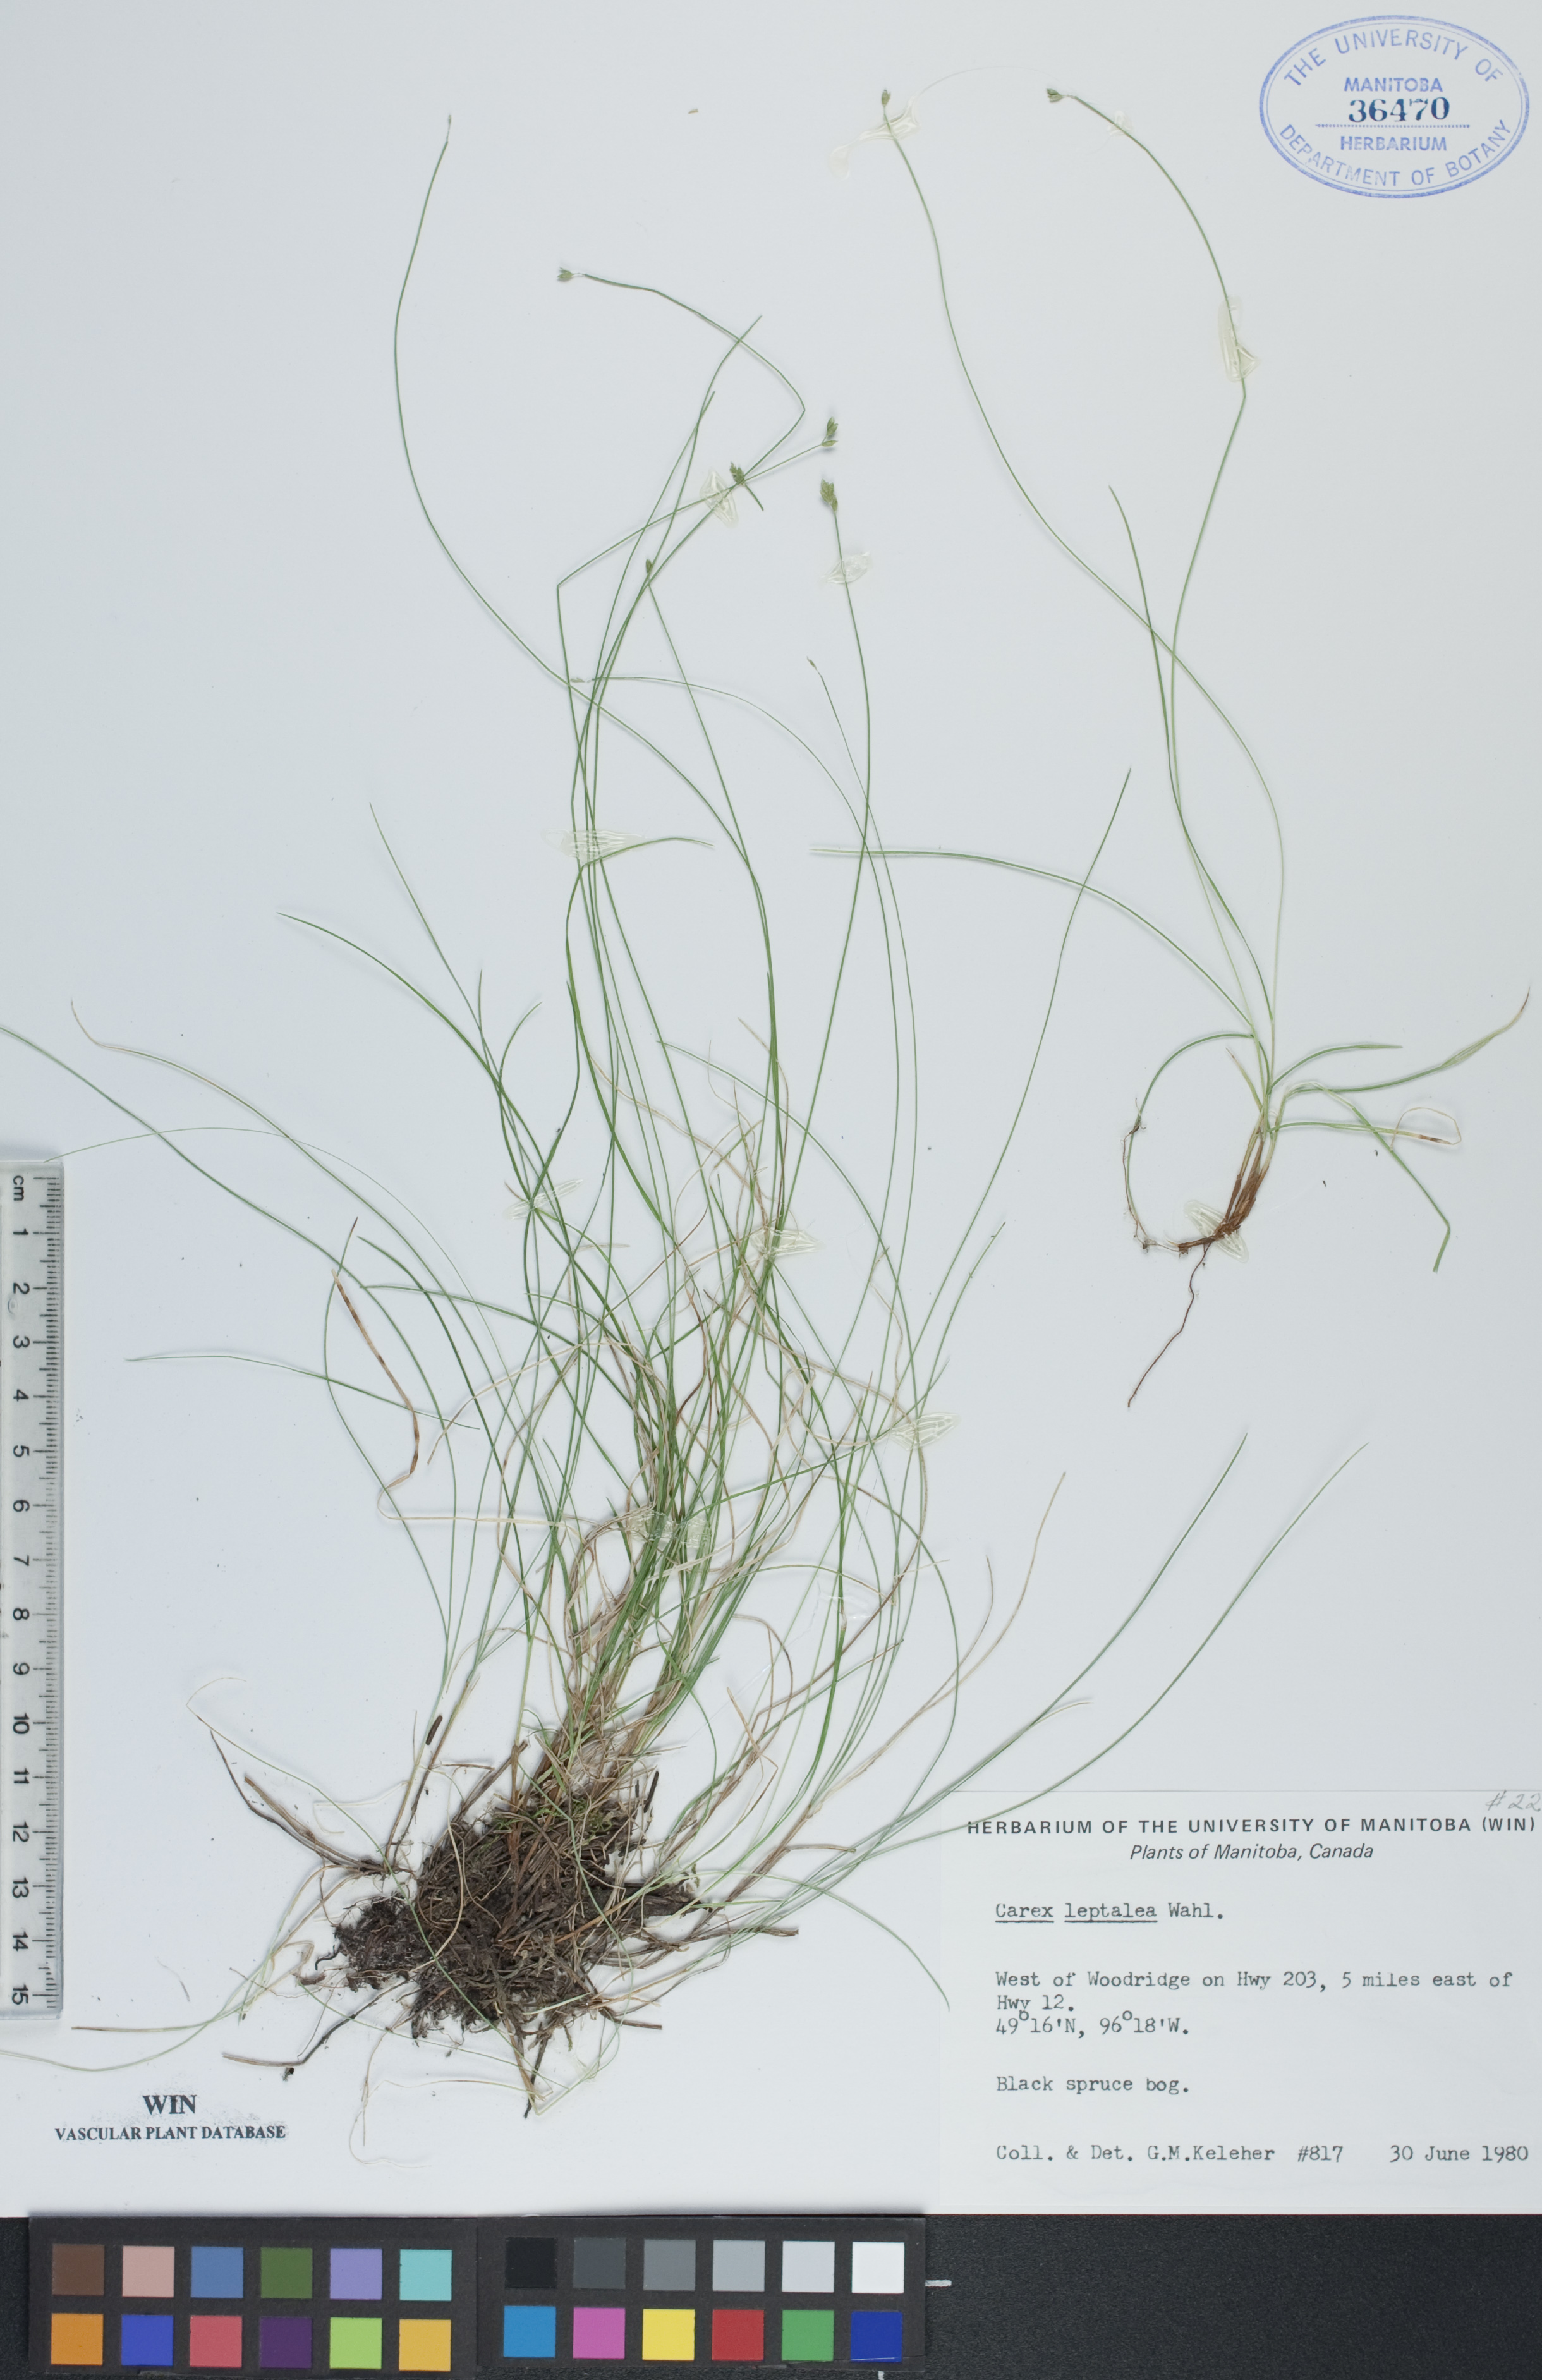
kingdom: Plantae
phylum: Tracheophyta
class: Liliopsida
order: Poales
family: Cyperaceae
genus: Carex
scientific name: Carex leptalea
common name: Bristly-stalked sedge
